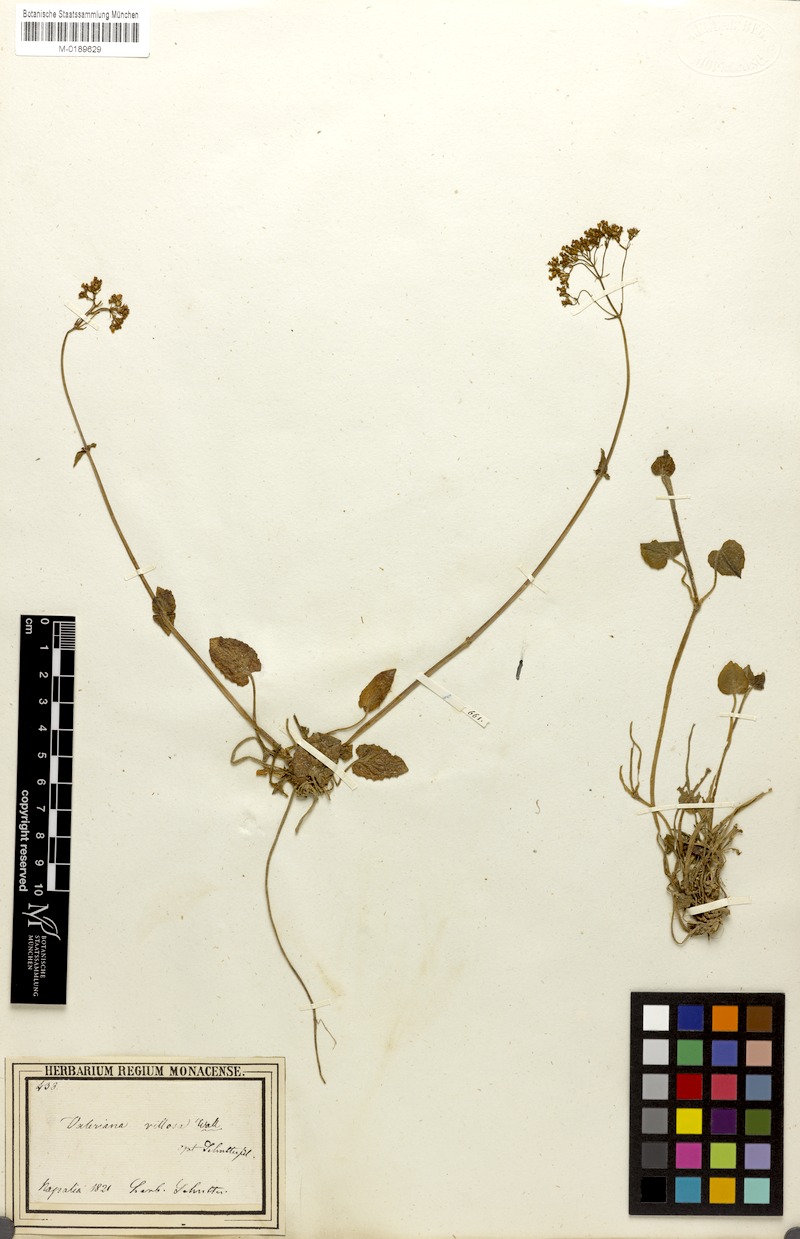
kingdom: Plantae
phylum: Tracheophyta
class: Magnoliopsida
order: Dipsacales
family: Caprifoliaceae
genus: Valeriana
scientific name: Valeriana jatamansi
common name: Indian valerian
